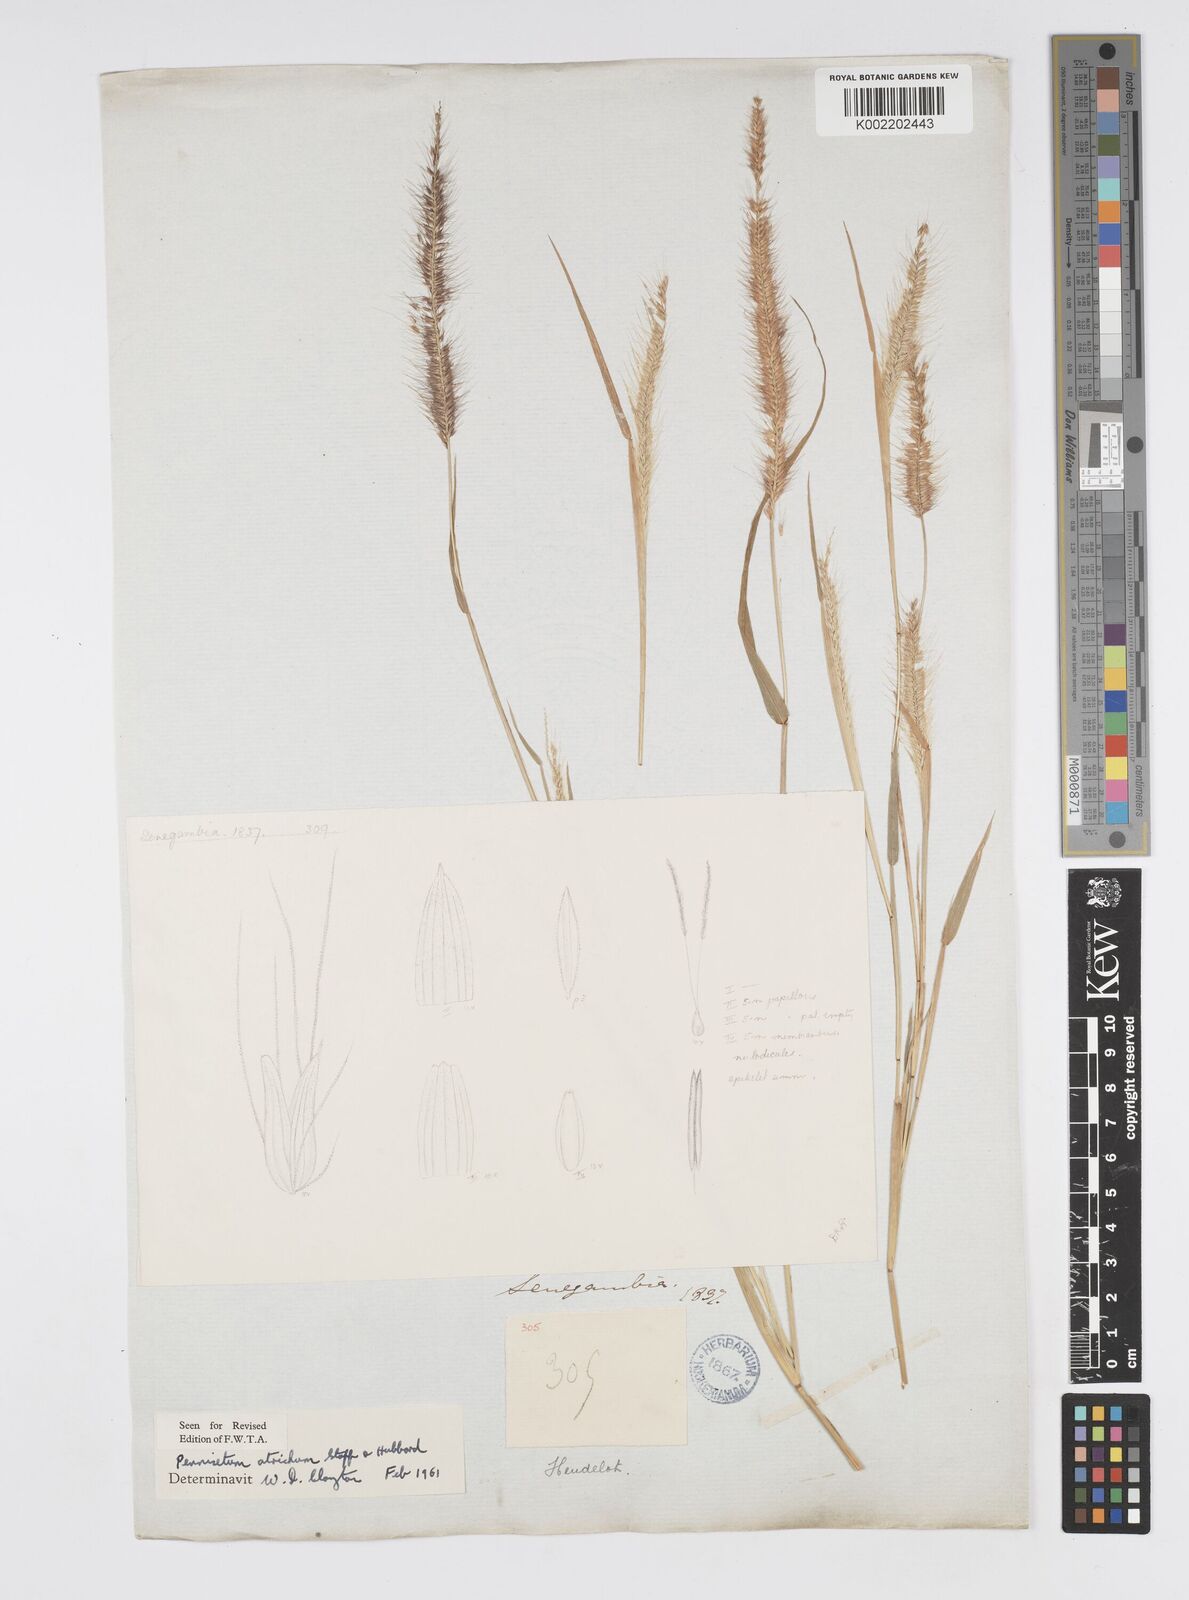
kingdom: Plantae
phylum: Tracheophyta
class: Liliopsida
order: Poales
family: Poaceae
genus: Cenchrus
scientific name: Cenchrus setosus
